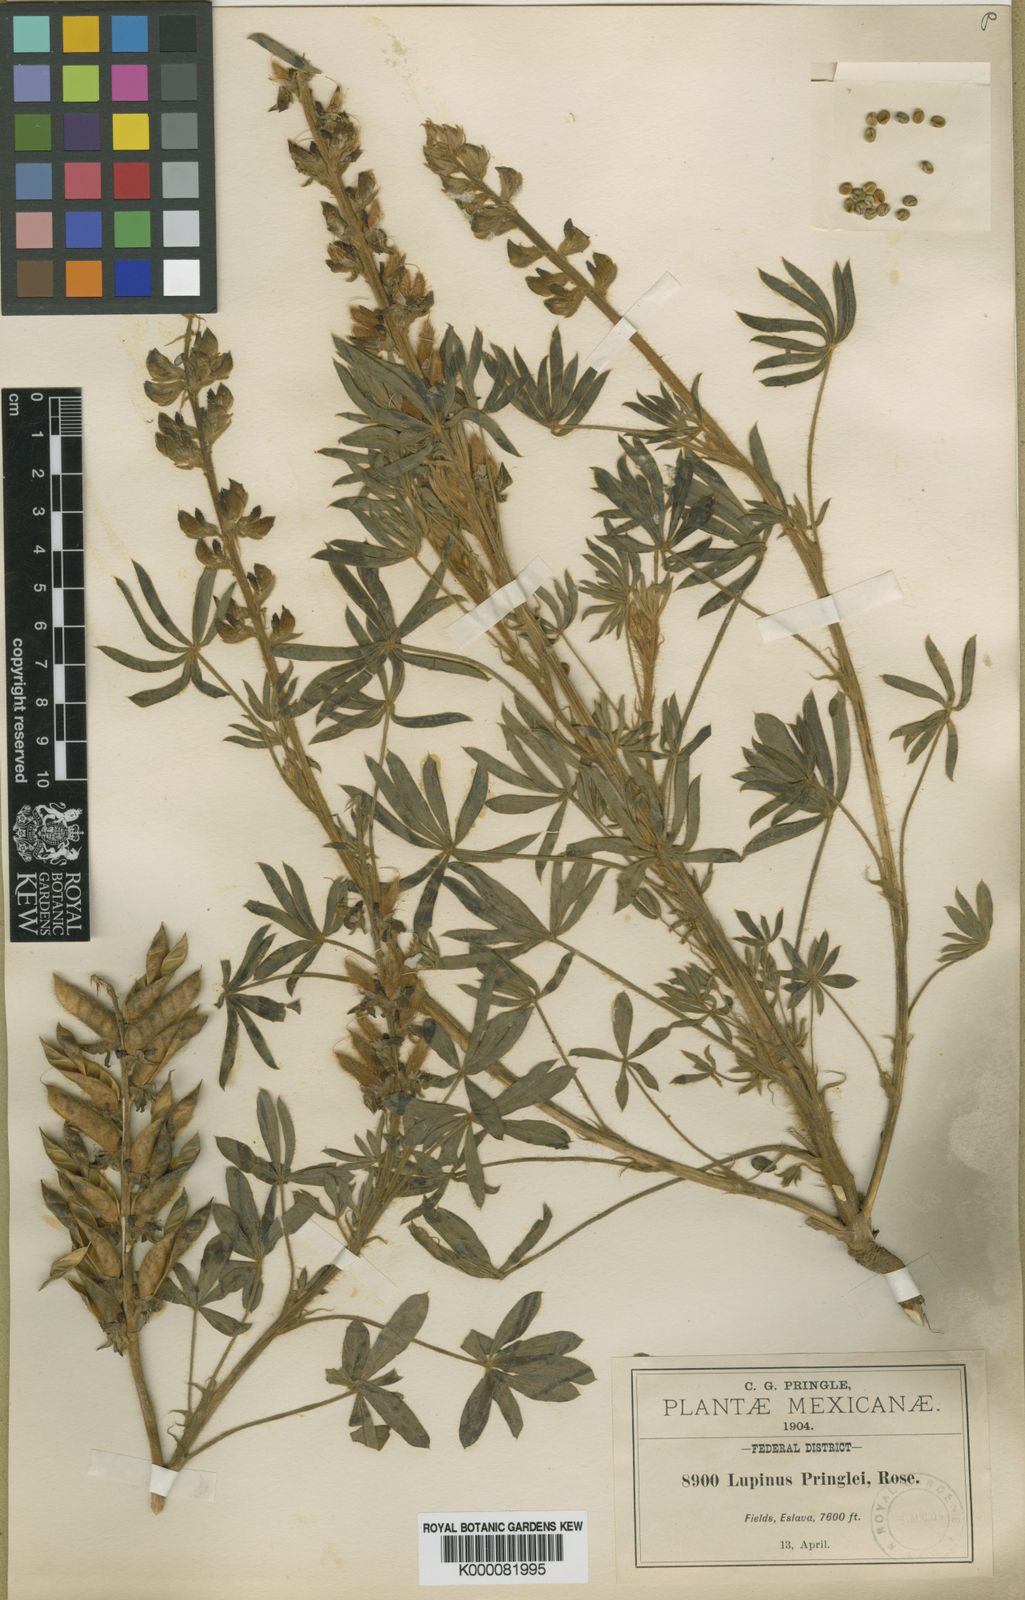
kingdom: Plantae
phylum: Tracheophyta
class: Magnoliopsida
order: Fabales
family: Fabaceae
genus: Lupinus
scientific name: Lupinus pringlei
